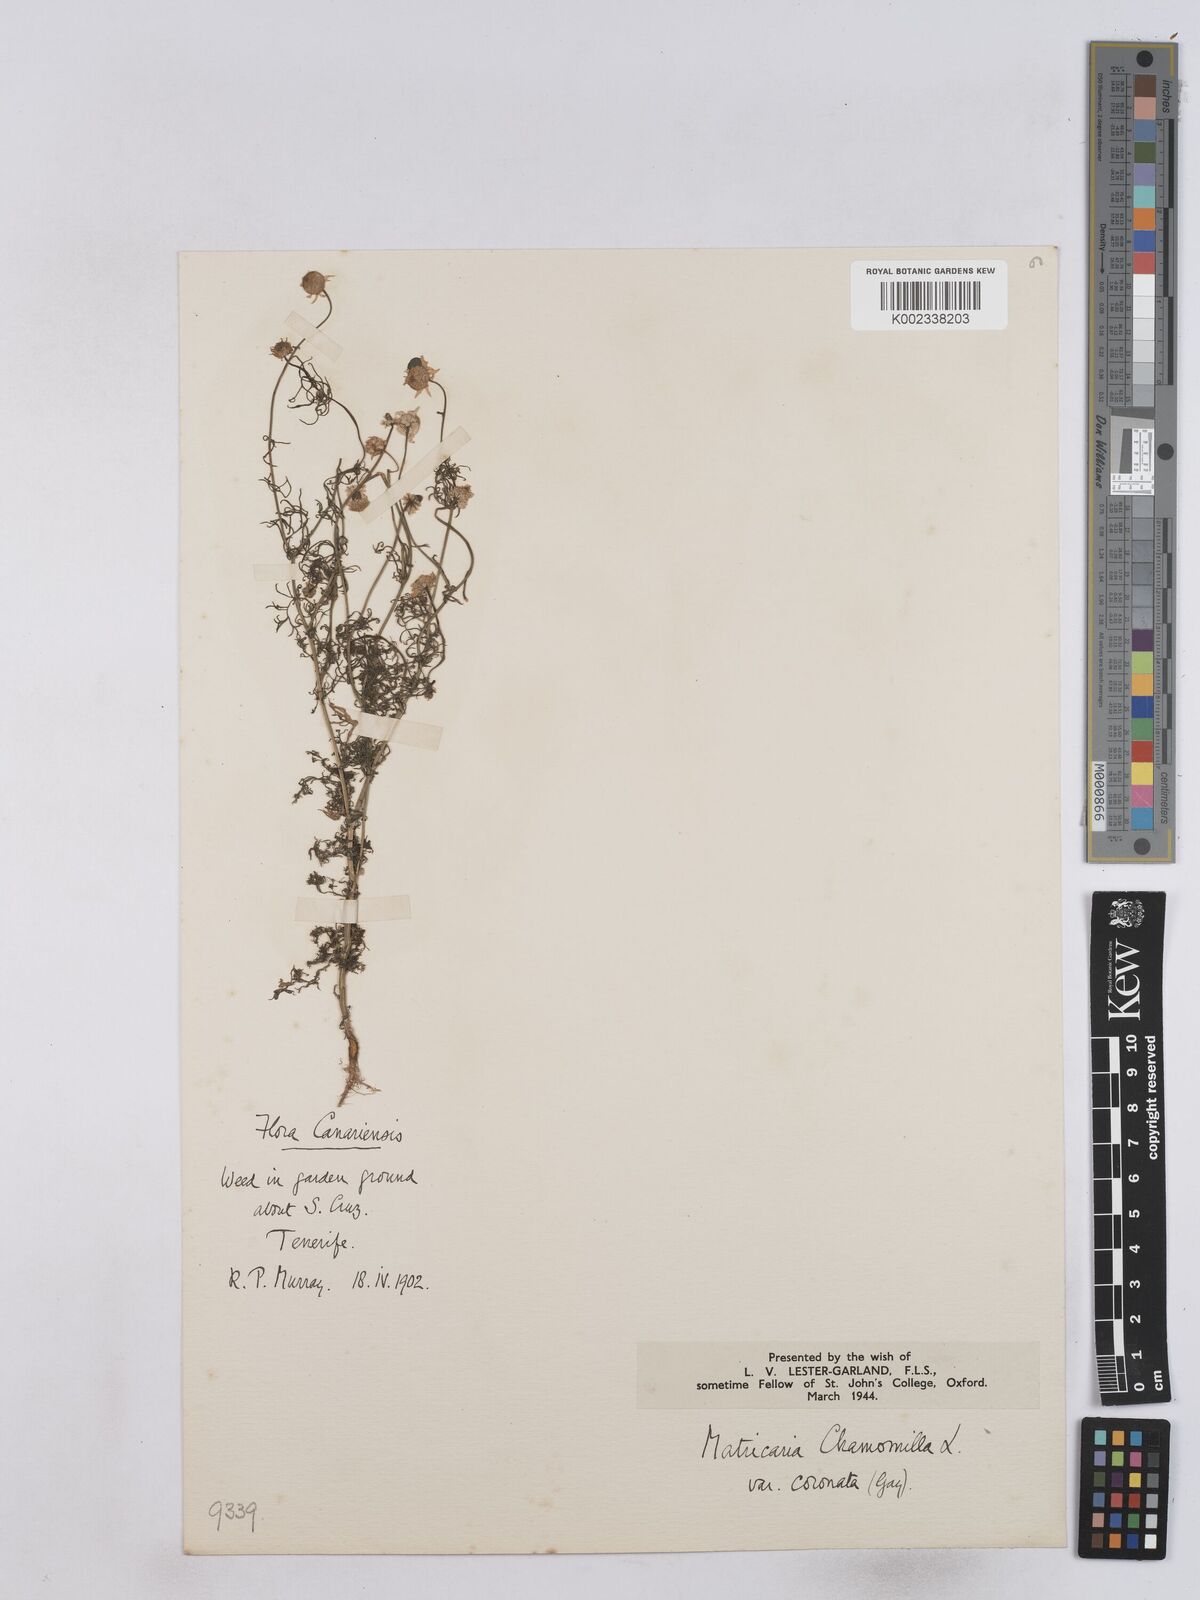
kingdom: Plantae
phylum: Tracheophyta
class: Magnoliopsida
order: Asterales
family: Asteraceae
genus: Matricaria
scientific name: Matricaria chamomilla
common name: Scented mayweed
